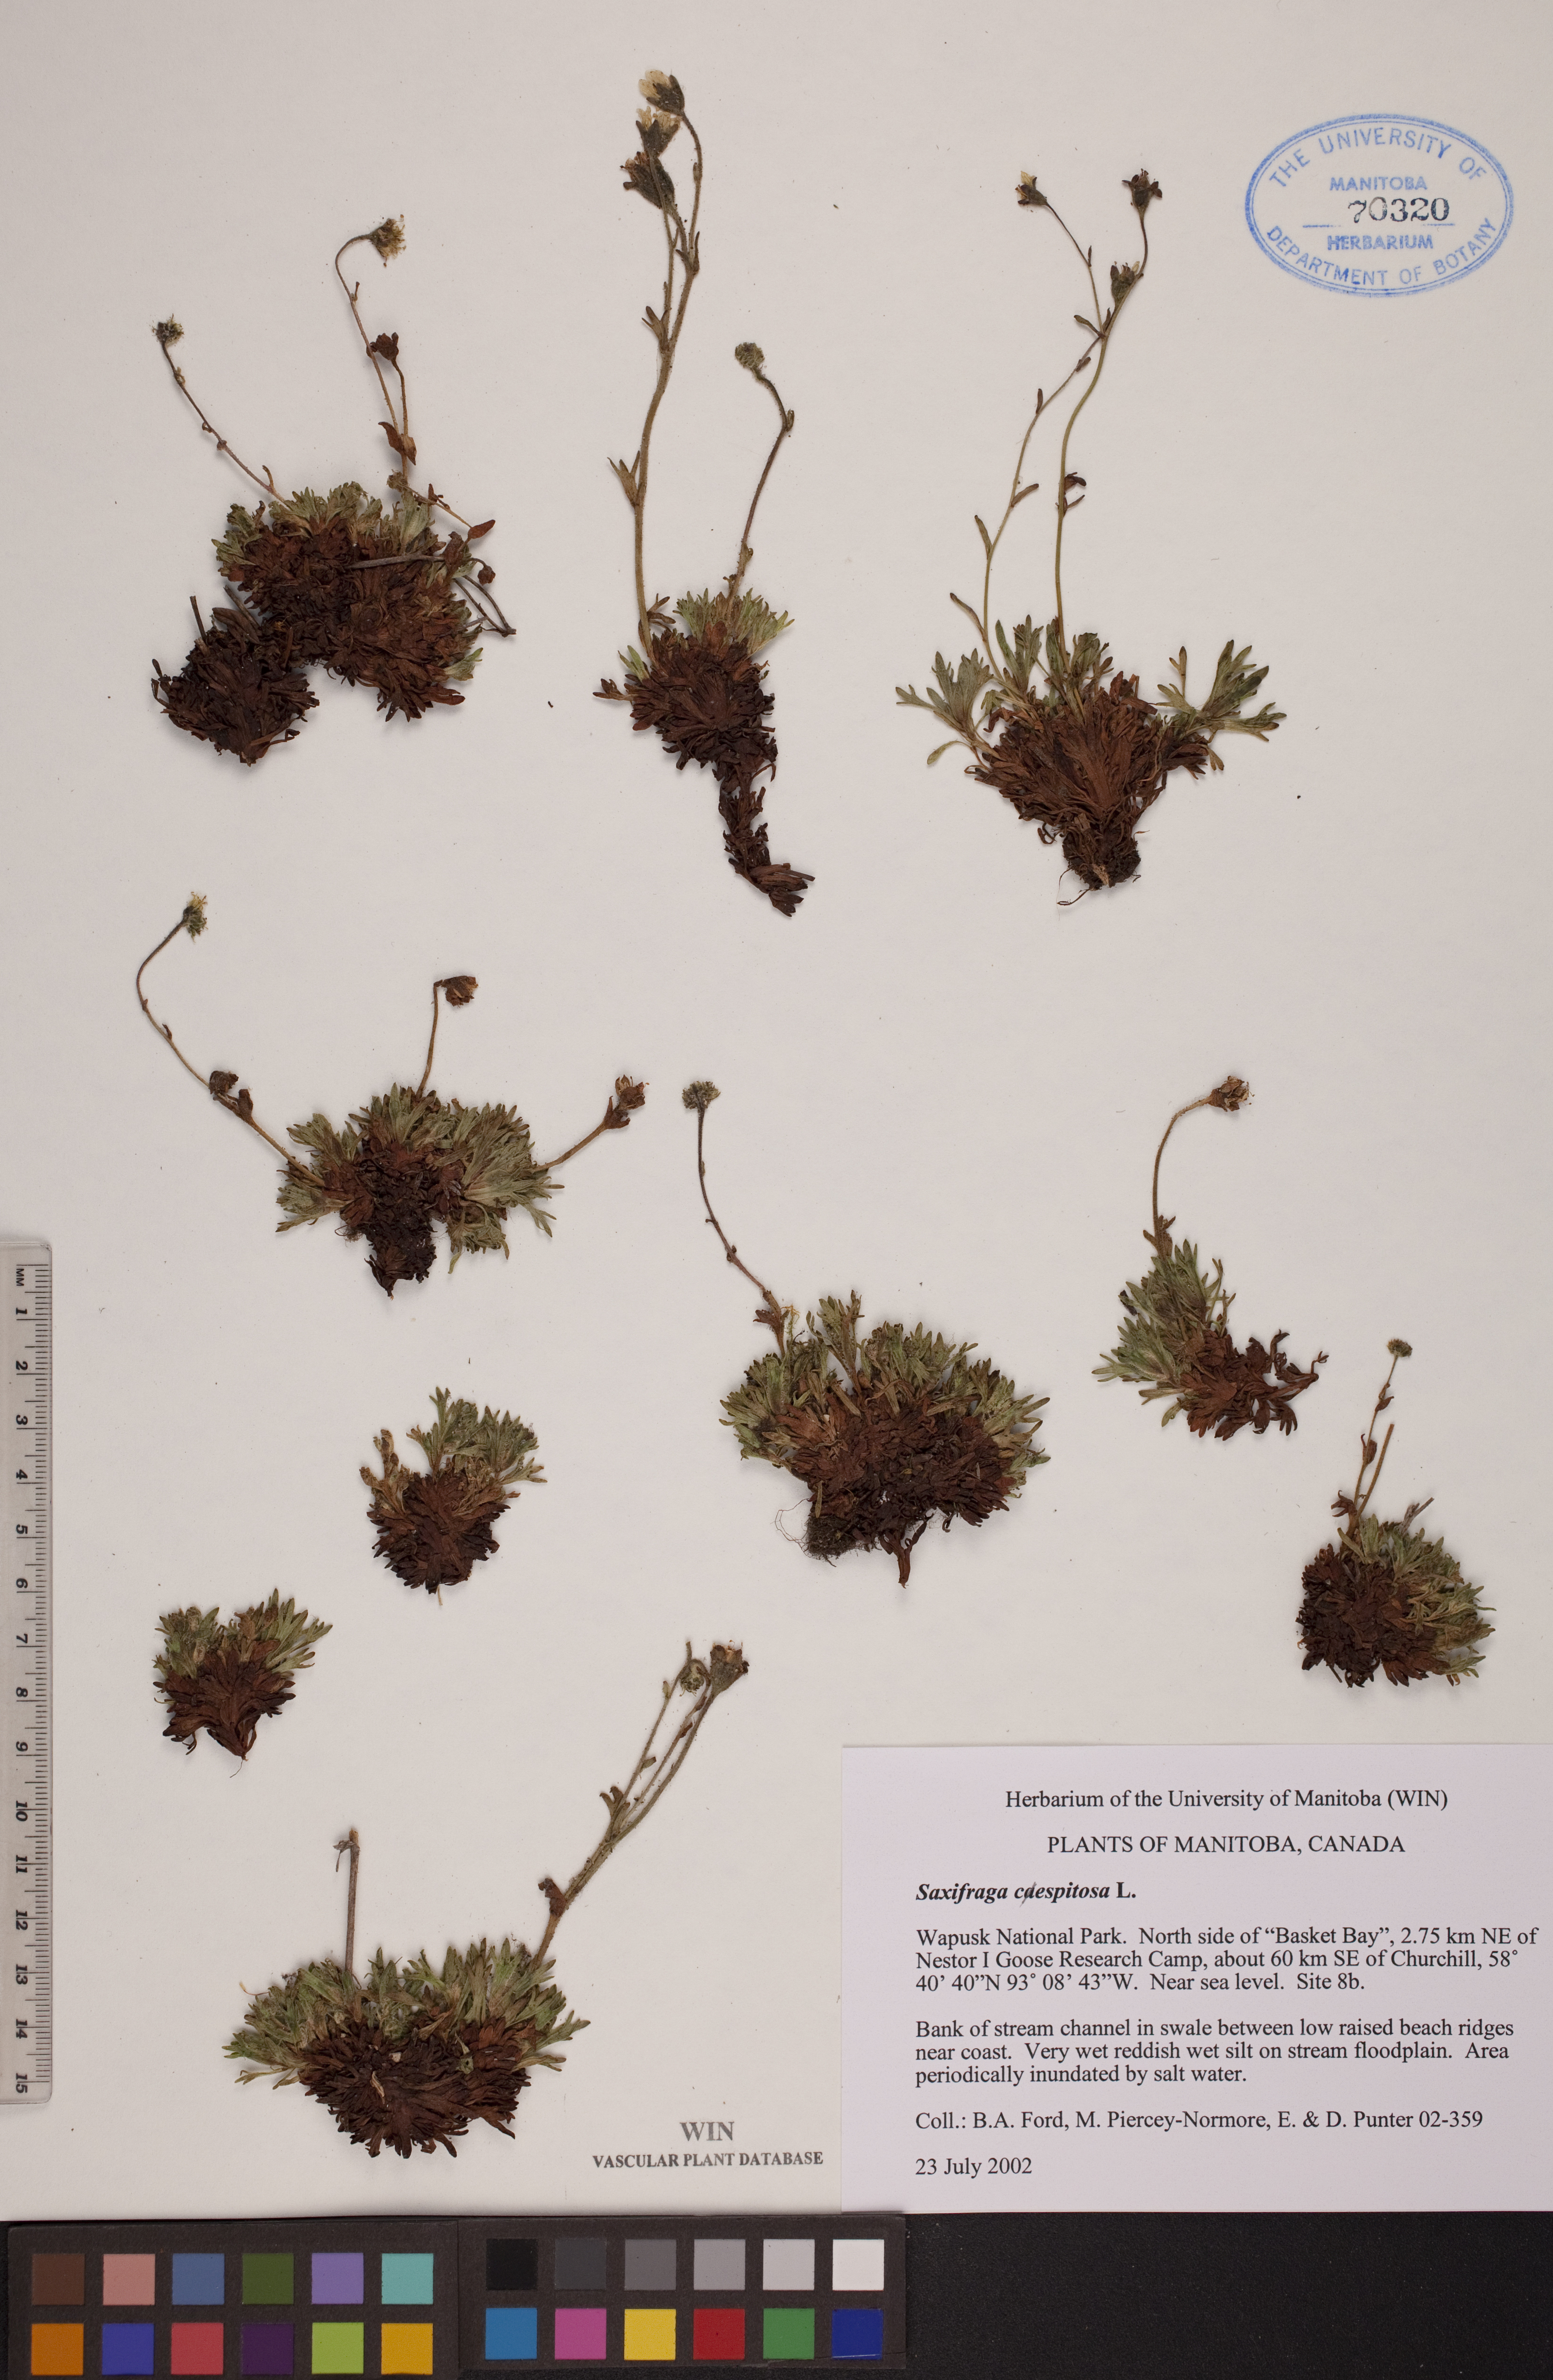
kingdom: Plantae
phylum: Tracheophyta
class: Magnoliopsida
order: Saxifragales
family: Saxifragaceae
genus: Saxifraga
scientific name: Saxifraga cespitosa
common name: Tufted saxifrage
